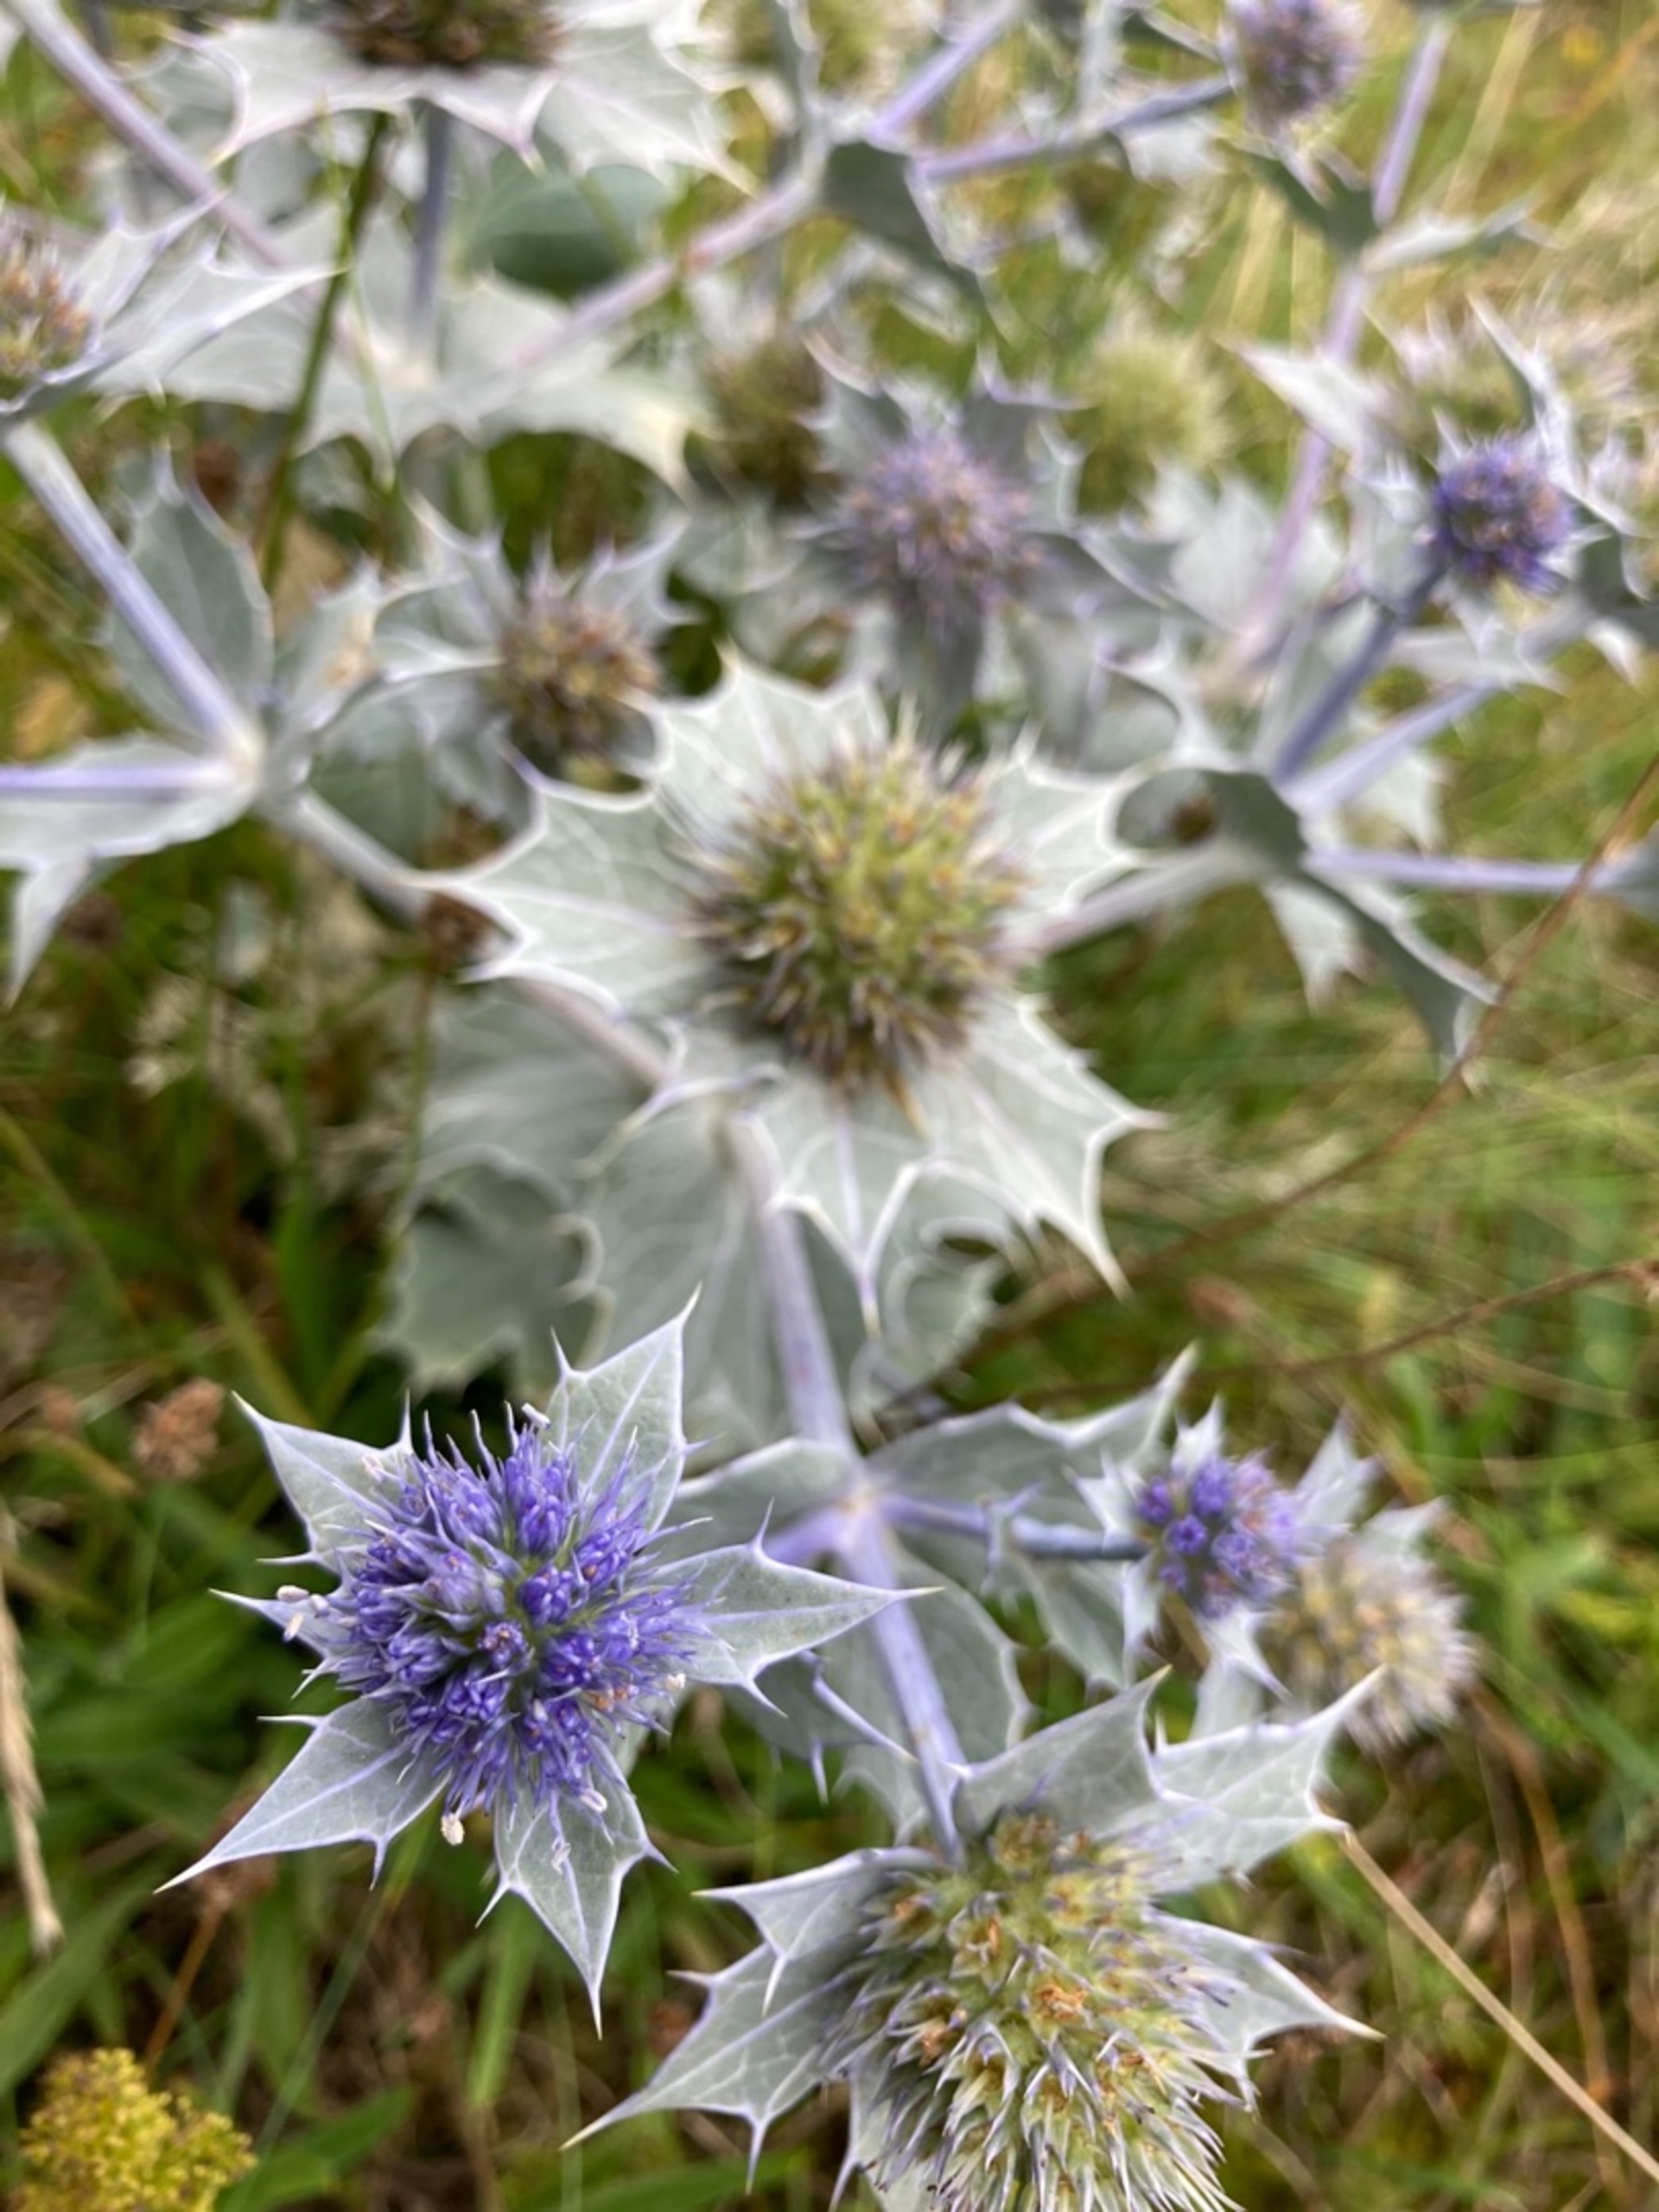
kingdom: Plantae
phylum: Tracheophyta
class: Magnoliopsida
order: Apiales
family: Apiaceae
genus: Eryngium
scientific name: Eryngium maritimum
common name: Strand-mandstro
